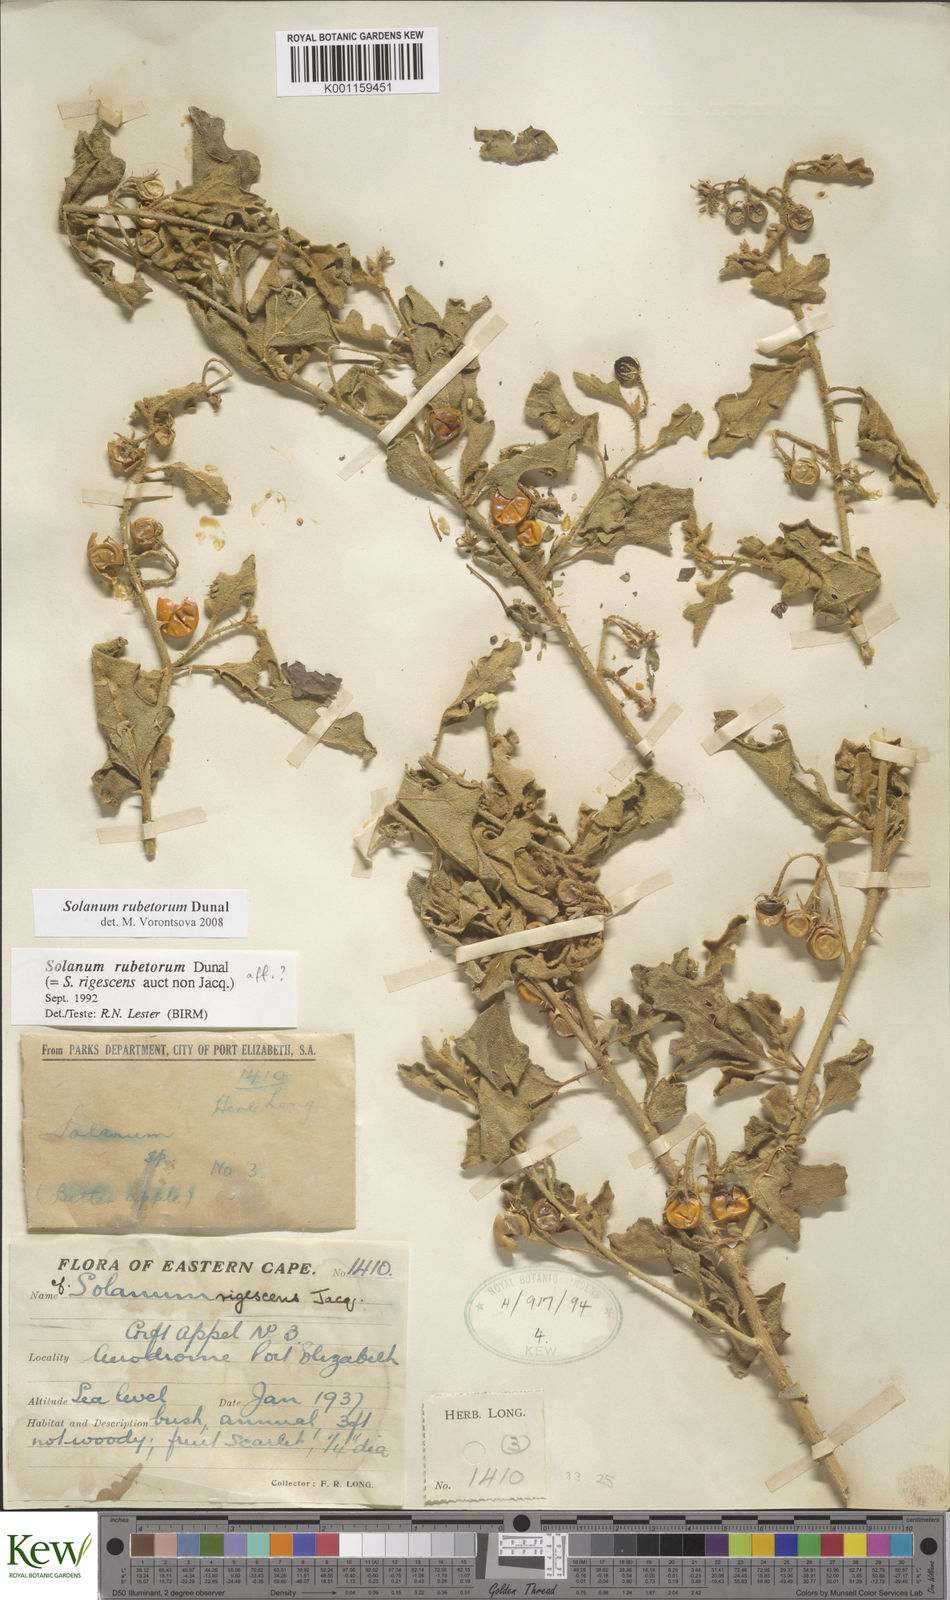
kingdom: Plantae
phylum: Tracheophyta
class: Magnoliopsida
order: Solanales
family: Solanaceae
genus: Solanum
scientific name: Solanum rubetorum
